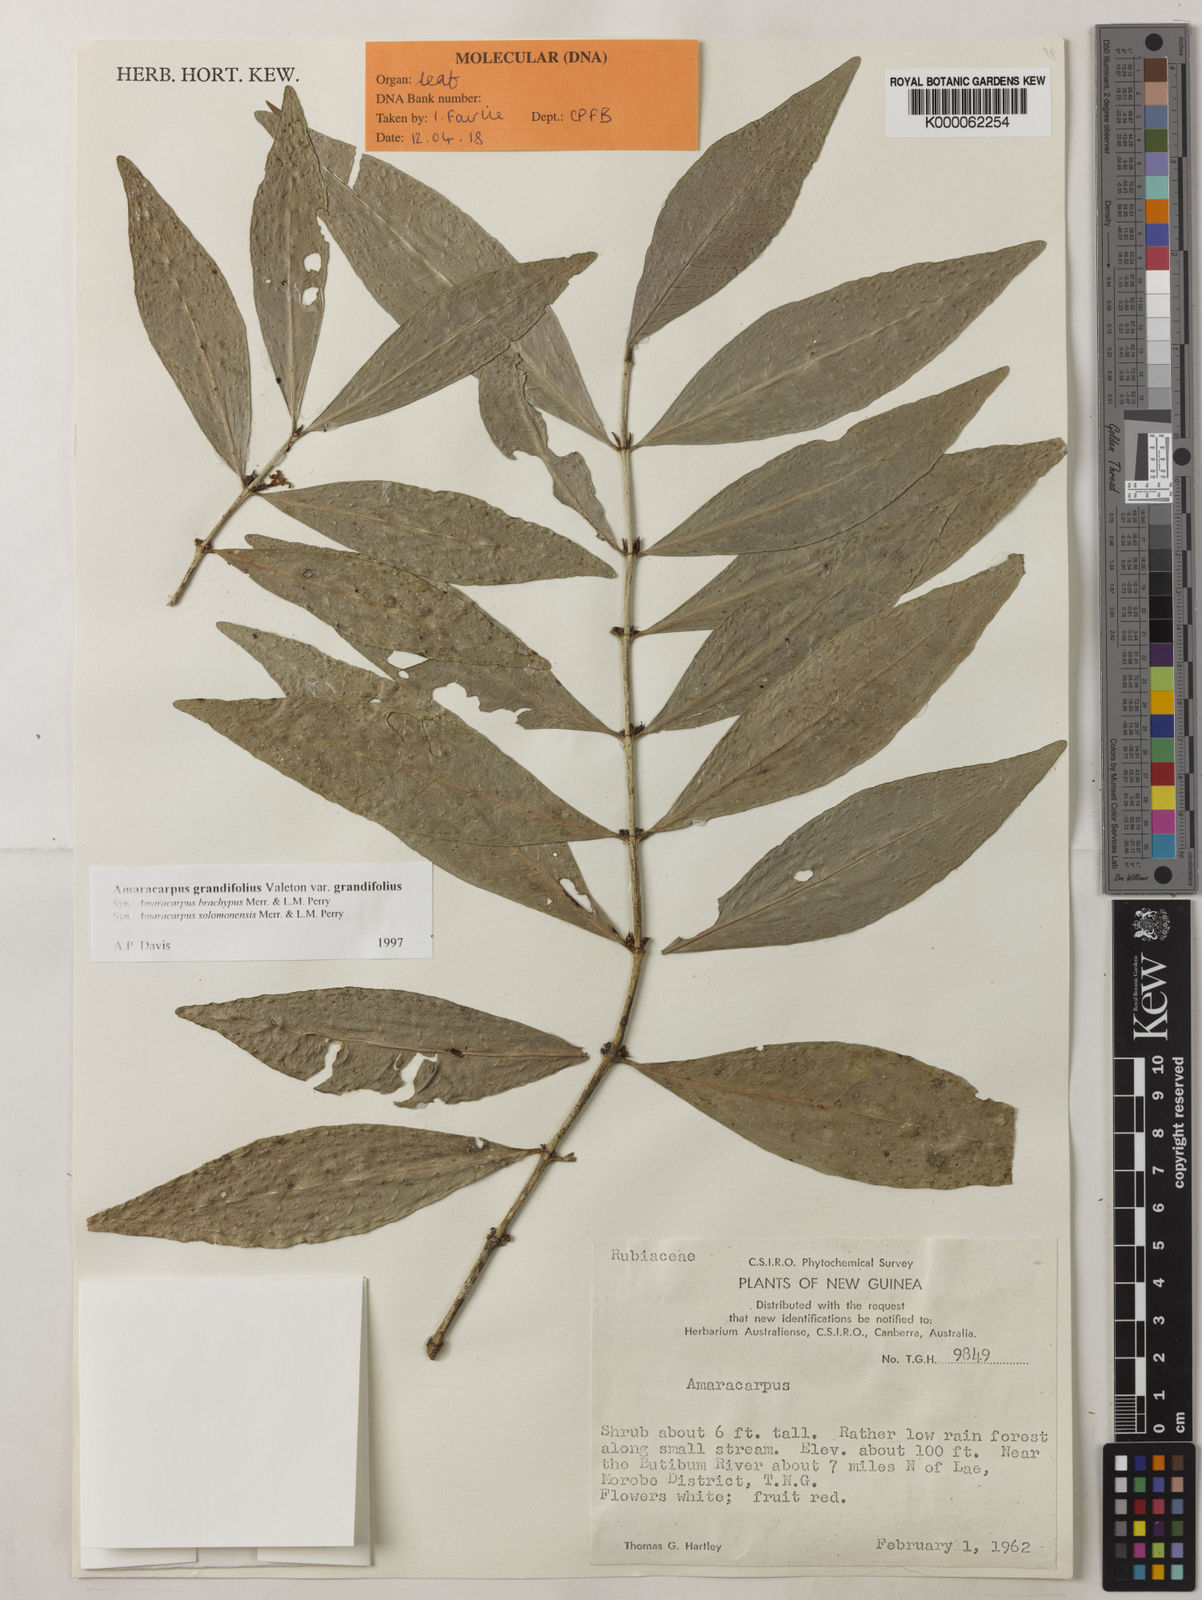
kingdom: Plantae
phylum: Tracheophyta
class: Magnoliopsida
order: Gentianales
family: Rubiaceae
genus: Amaracarpus
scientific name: Amaracarpus grandifolius
